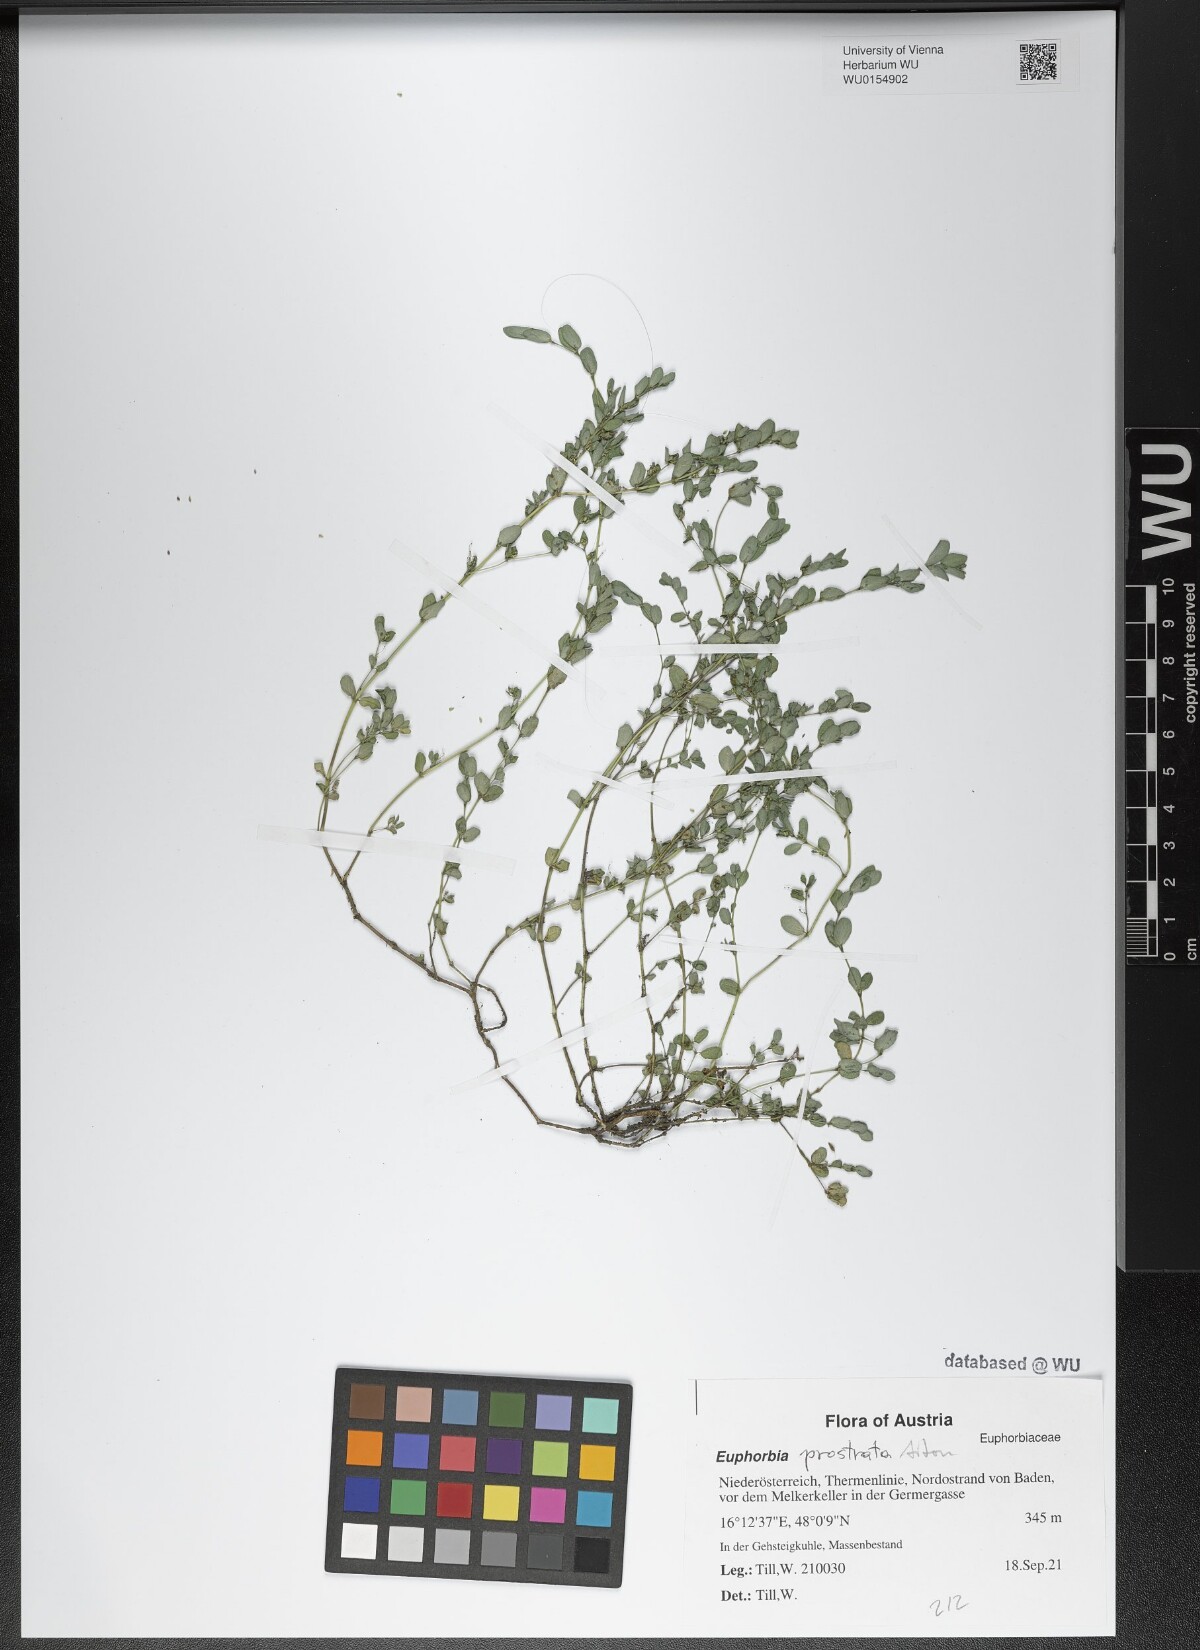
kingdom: Plantae
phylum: Tracheophyta
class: Magnoliopsida
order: Malpighiales
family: Euphorbiaceae
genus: Euphorbia
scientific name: Euphorbia prostrata
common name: Prostrate sandmat
